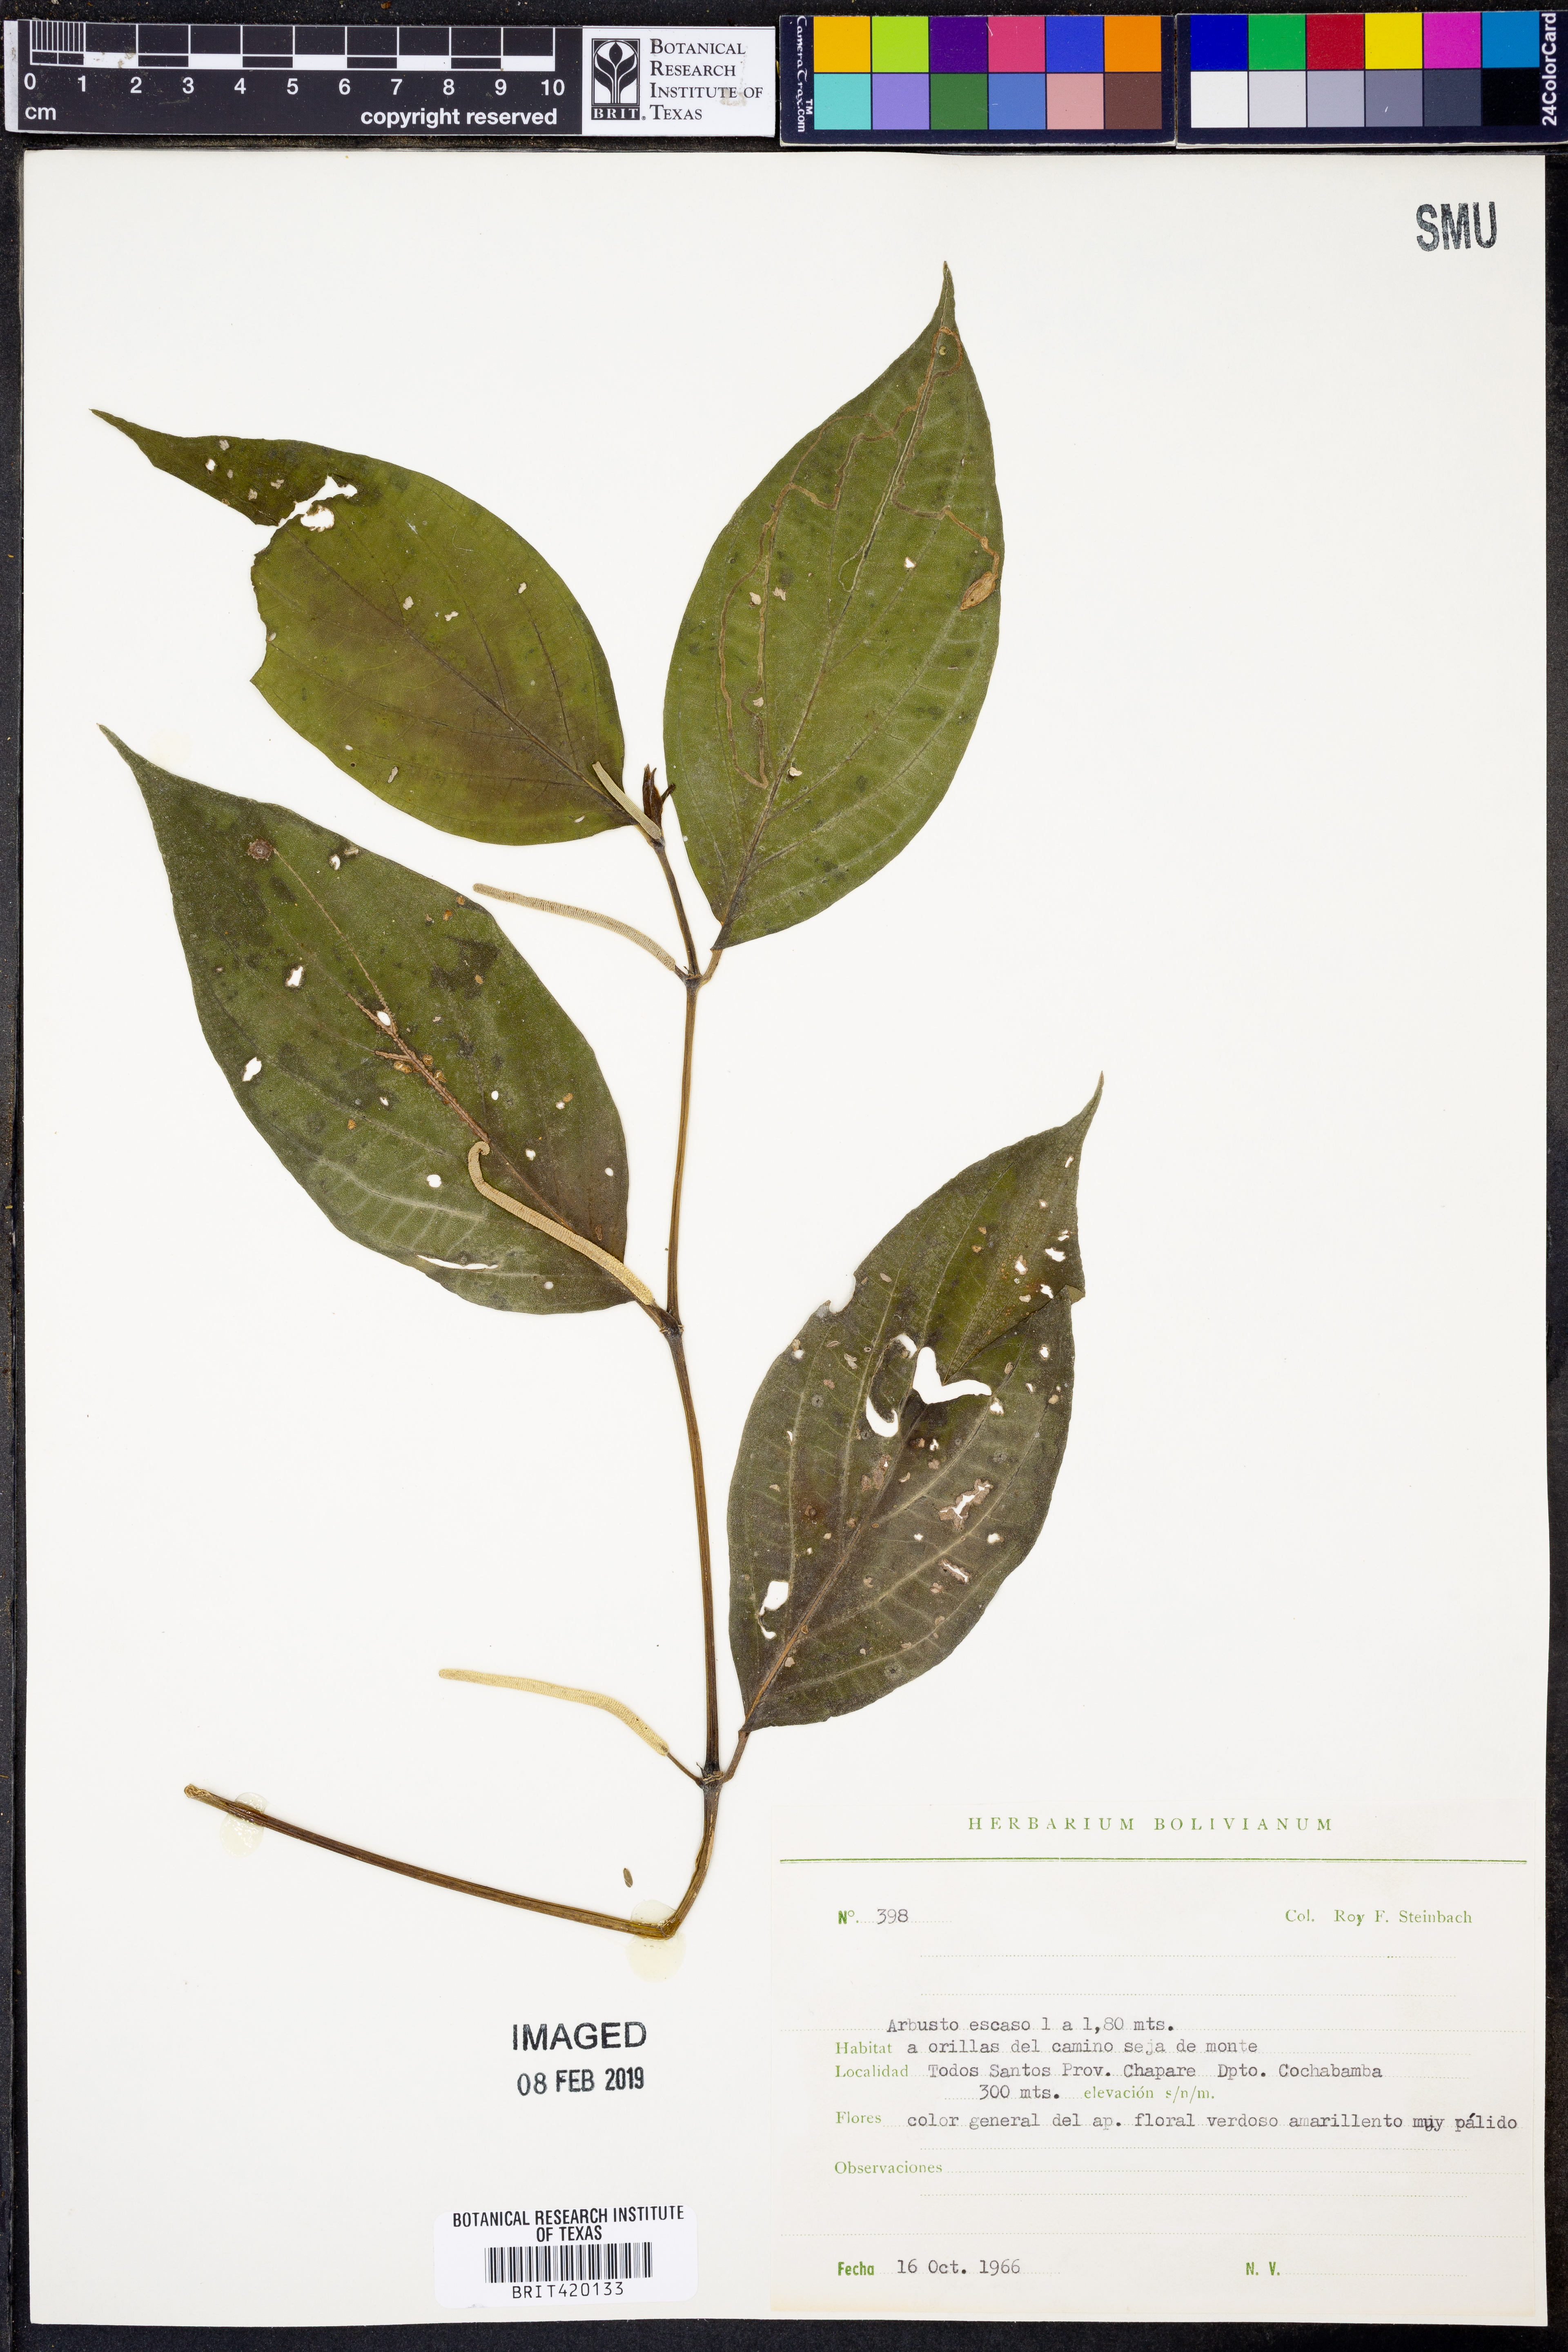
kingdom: Plantae
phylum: Tracheophyta
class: Magnoliopsida
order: Piperales
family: Piperaceae
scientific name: Piperaceae
